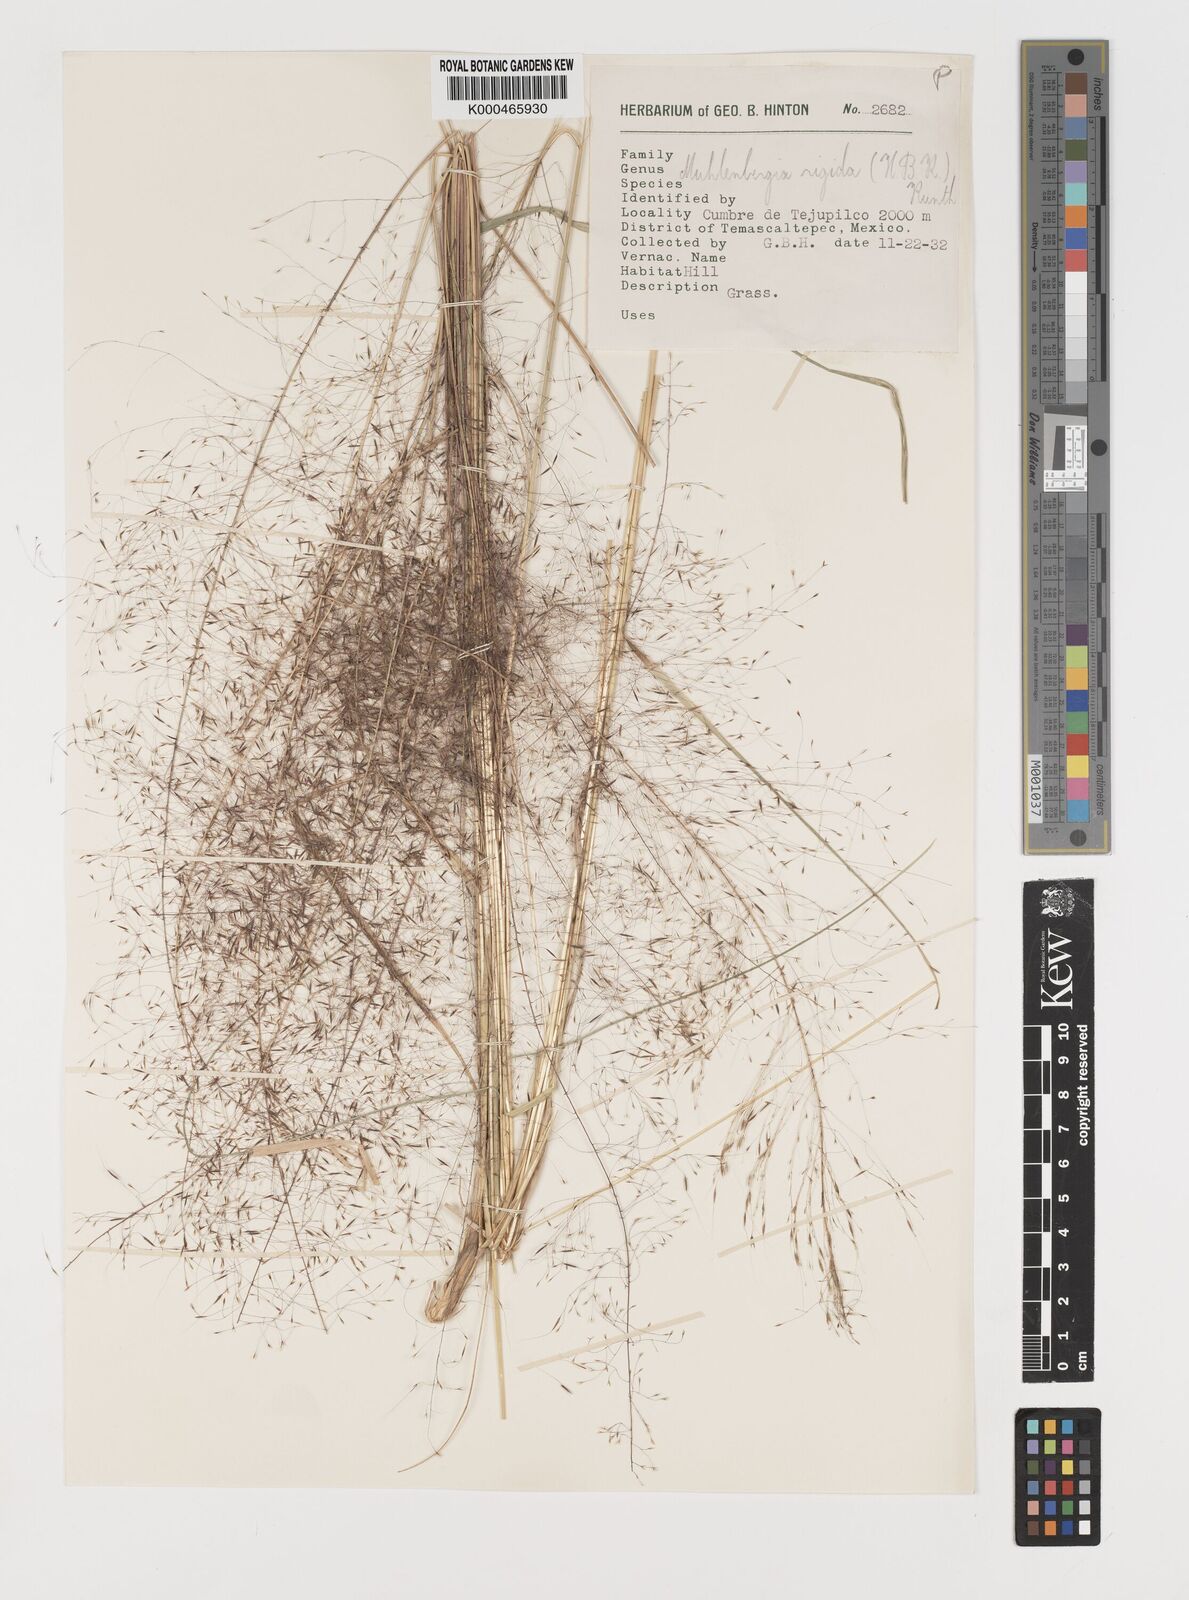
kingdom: Plantae
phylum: Tracheophyta
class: Liliopsida
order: Poales
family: Poaceae
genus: Muhlenbergia
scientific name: Muhlenbergia rigida
